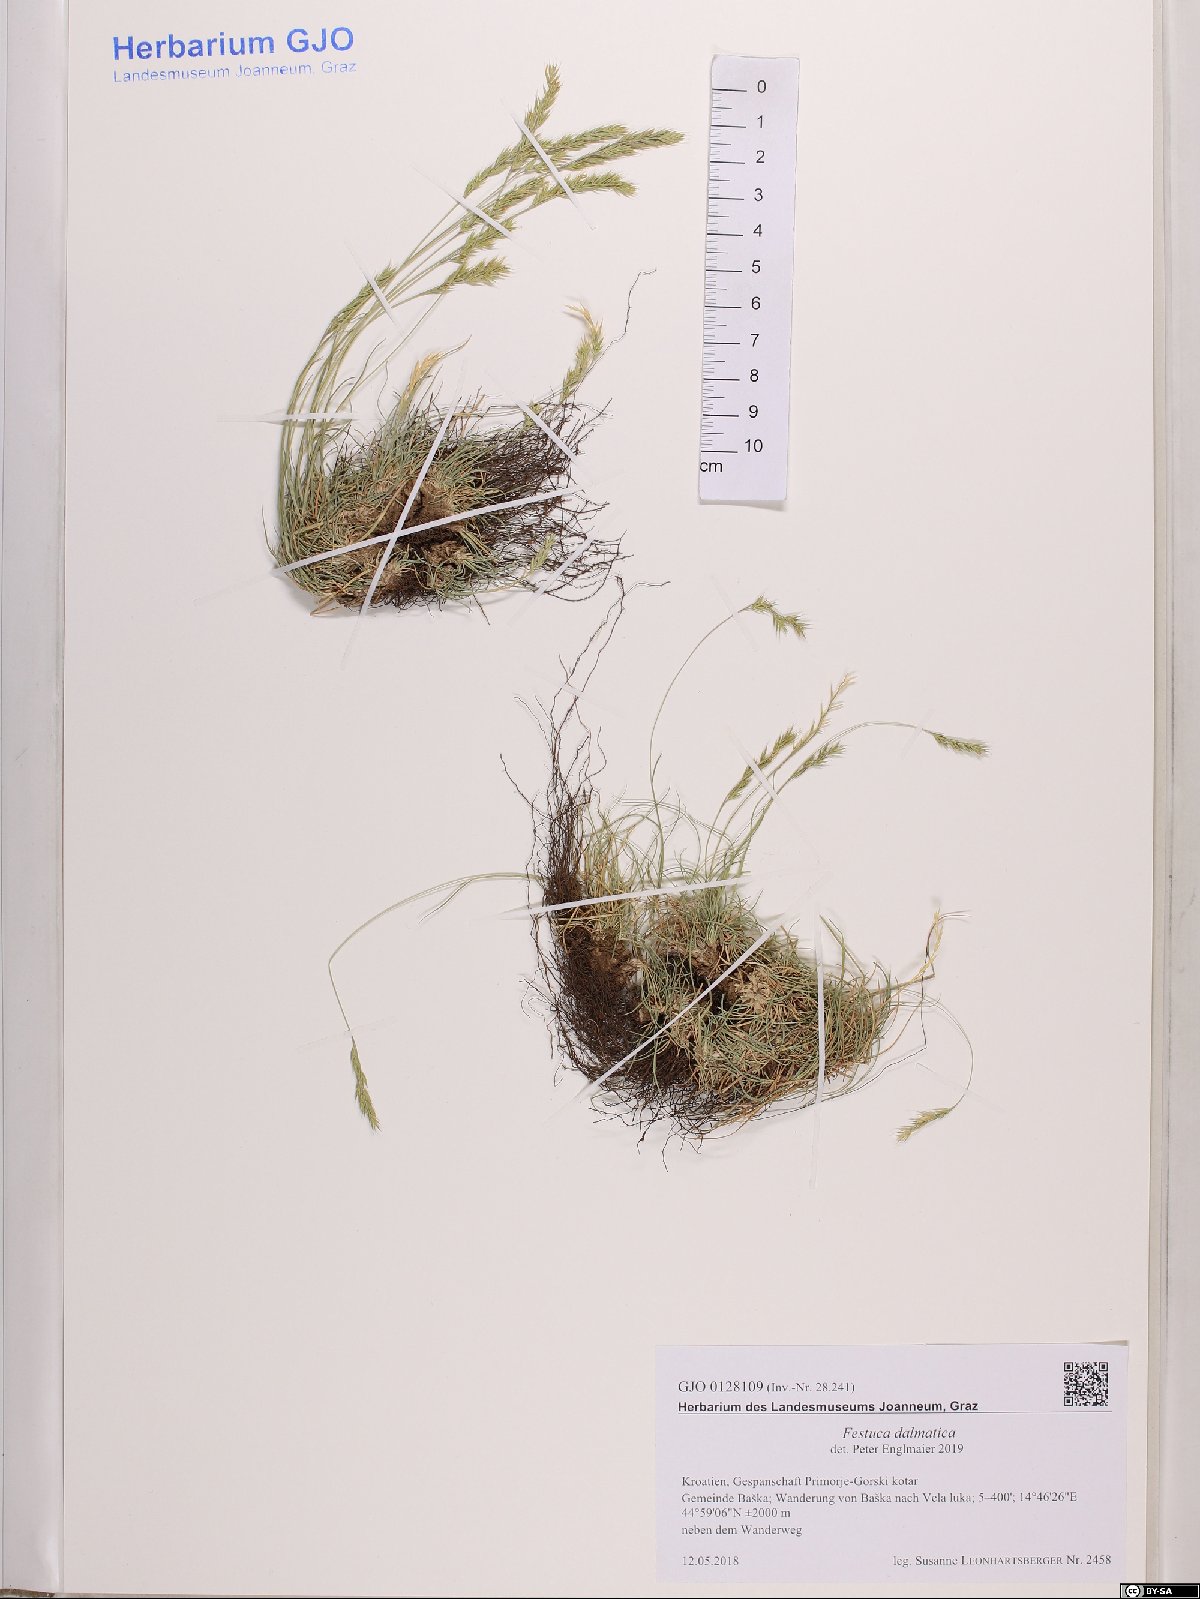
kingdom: Plantae
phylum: Tracheophyta
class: Liliopsida
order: Poales
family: Poaceae
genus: Festuca
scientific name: Festuca dalmatica
